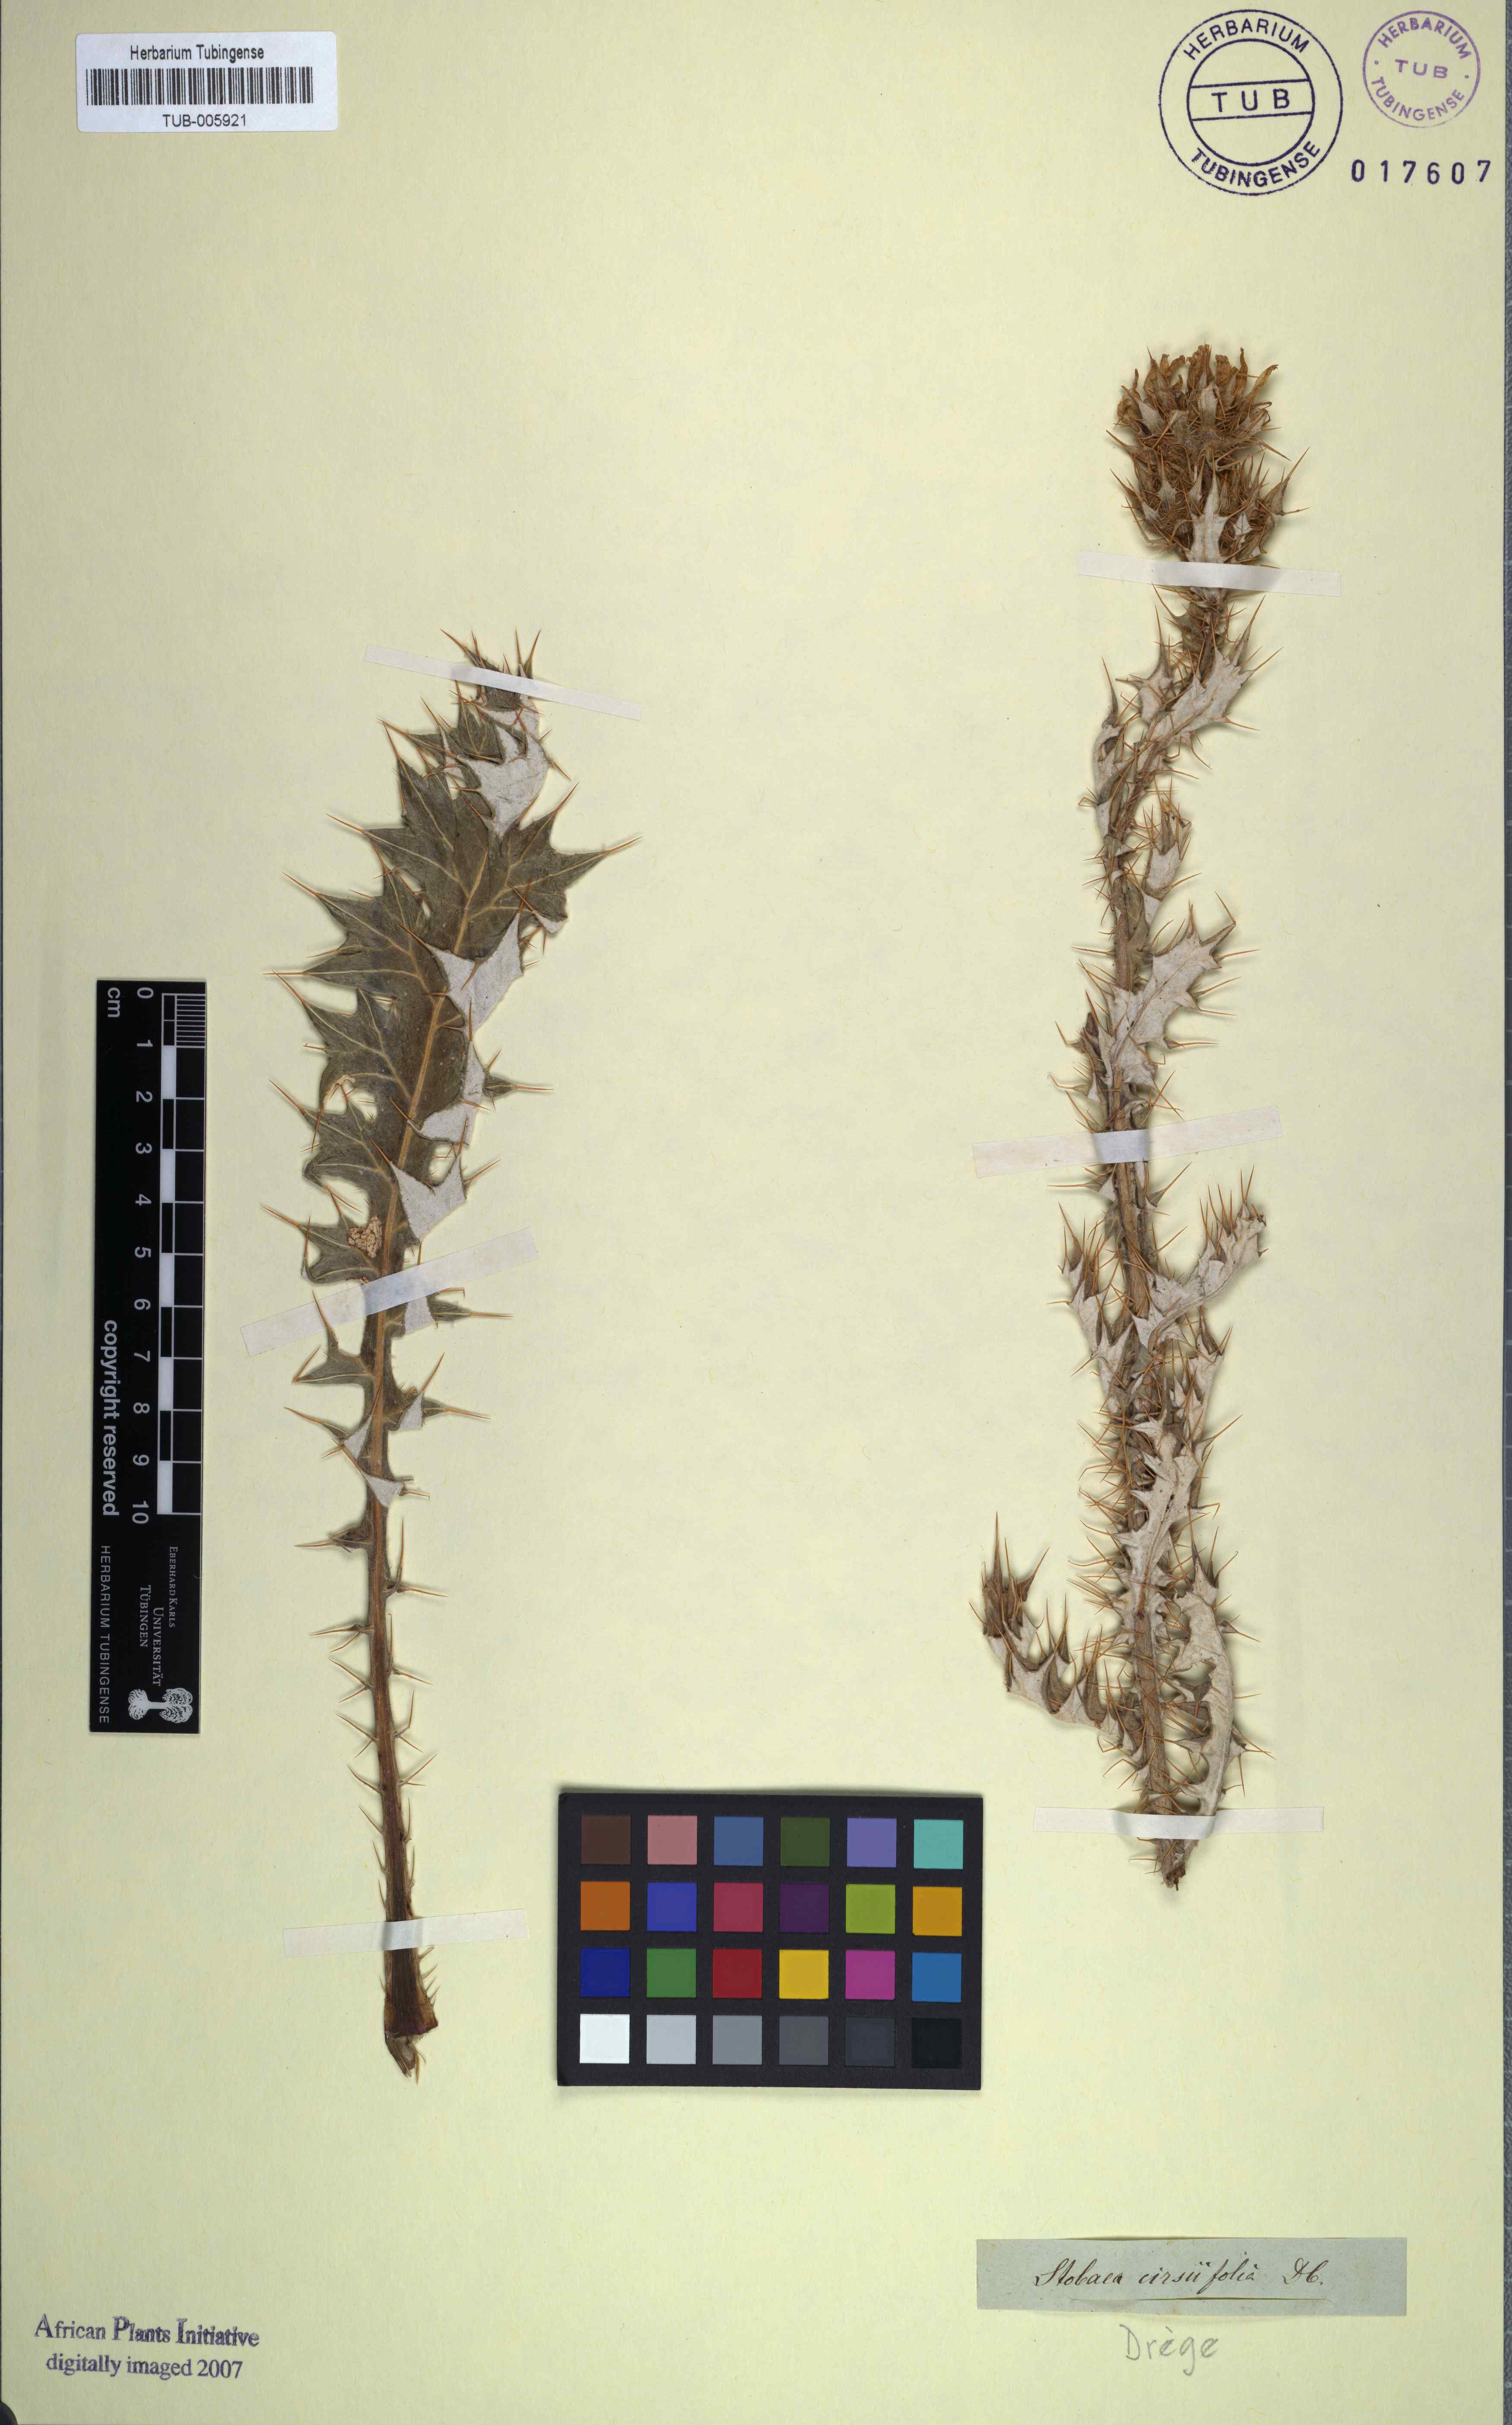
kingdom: Plantae
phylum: Tracheophyta
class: Magnoliopsida
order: Asterales
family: Asteraceae
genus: Berkheya
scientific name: Berkheya cirsiifolia
